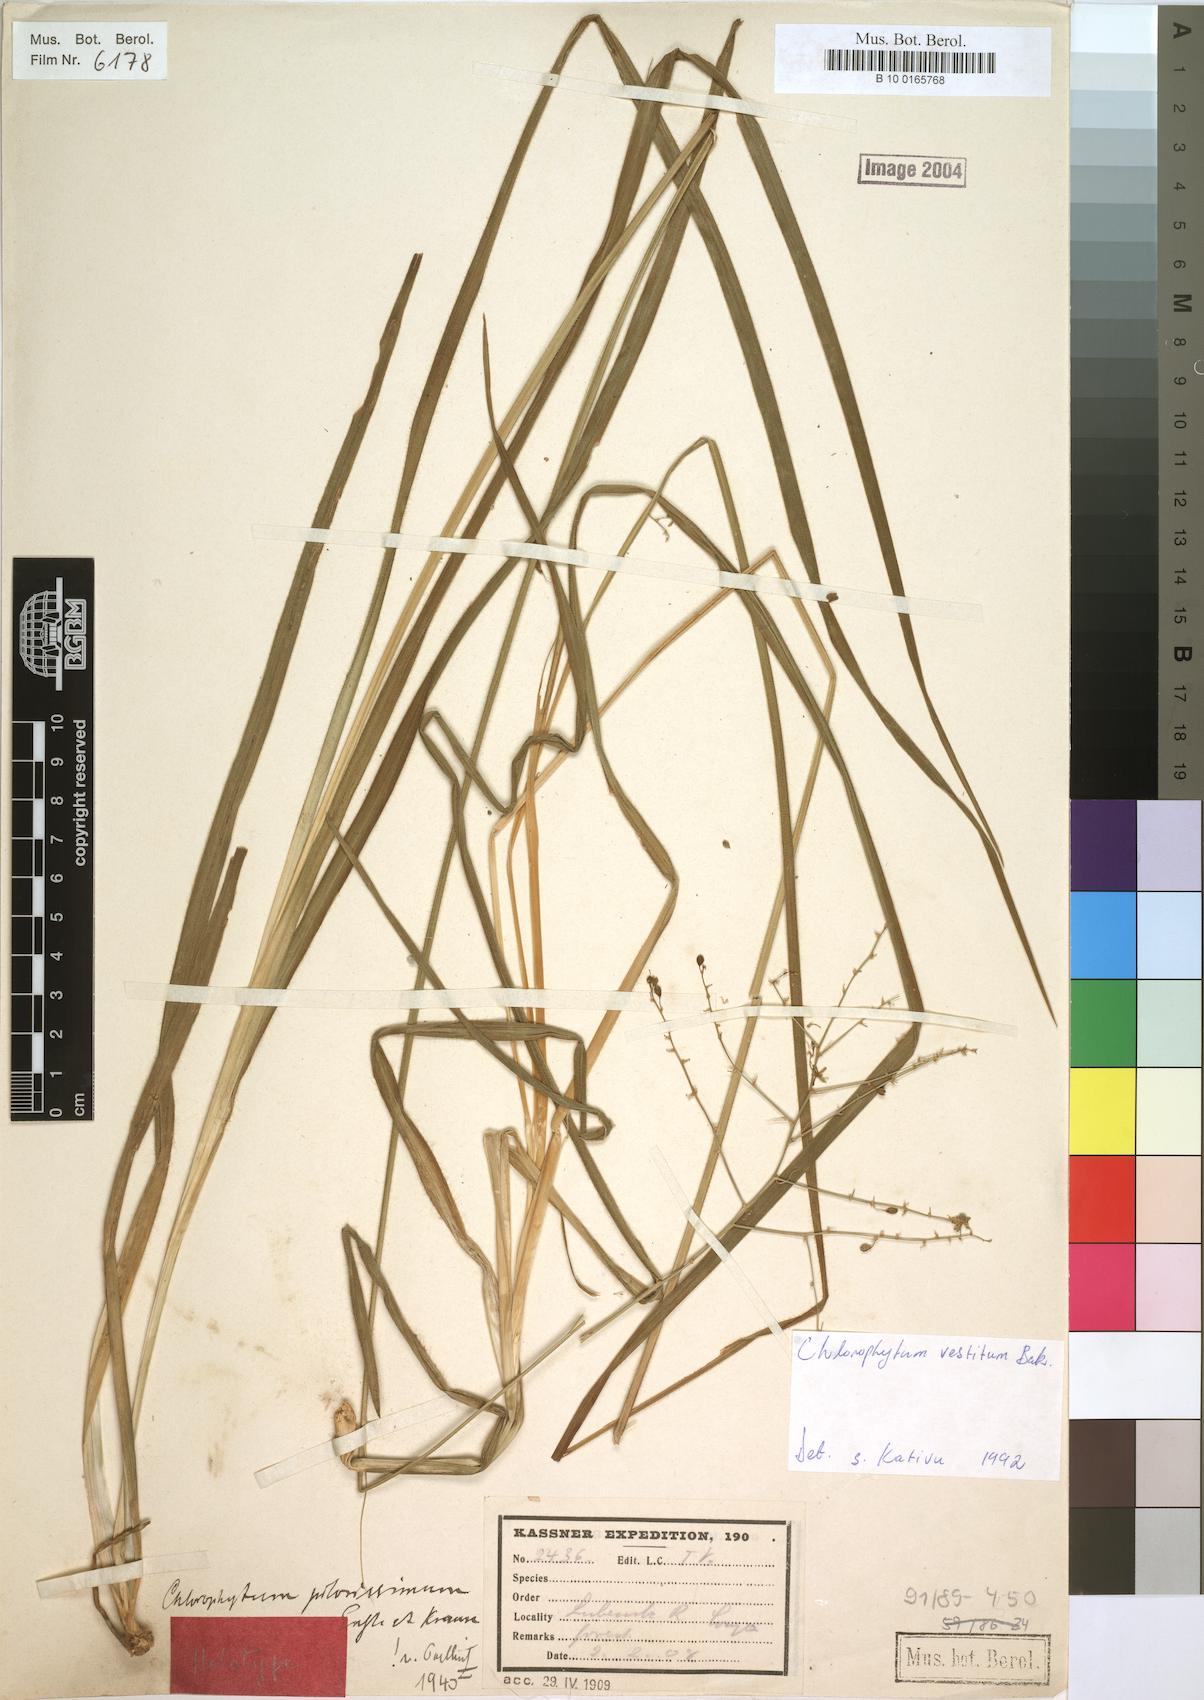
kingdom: Plantae
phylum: Tracheophyta
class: Liliopsida
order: Asparagales
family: Asparagaceae
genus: Chlorophytum
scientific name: Chlorophytum vestitum
